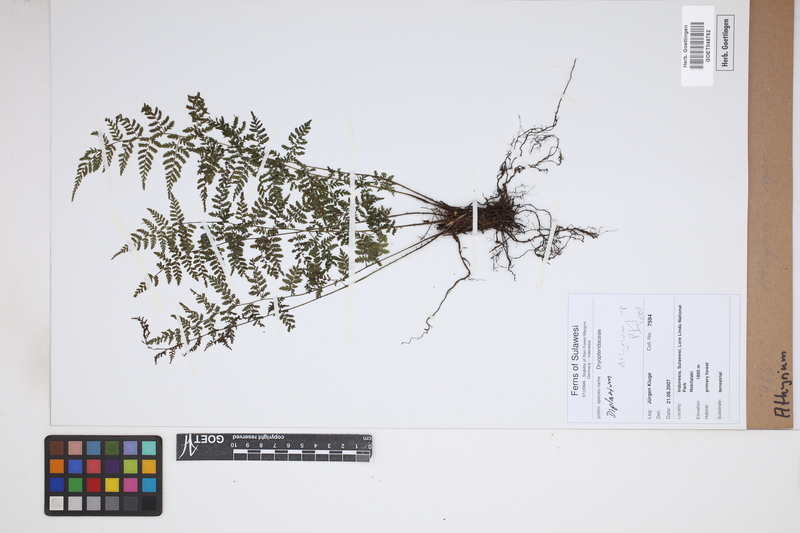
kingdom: Plantae
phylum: Tracheophyta
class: Polypodiopsida
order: Polypodiales
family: Athyriaceae
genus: Athyrium
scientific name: Athyrium
